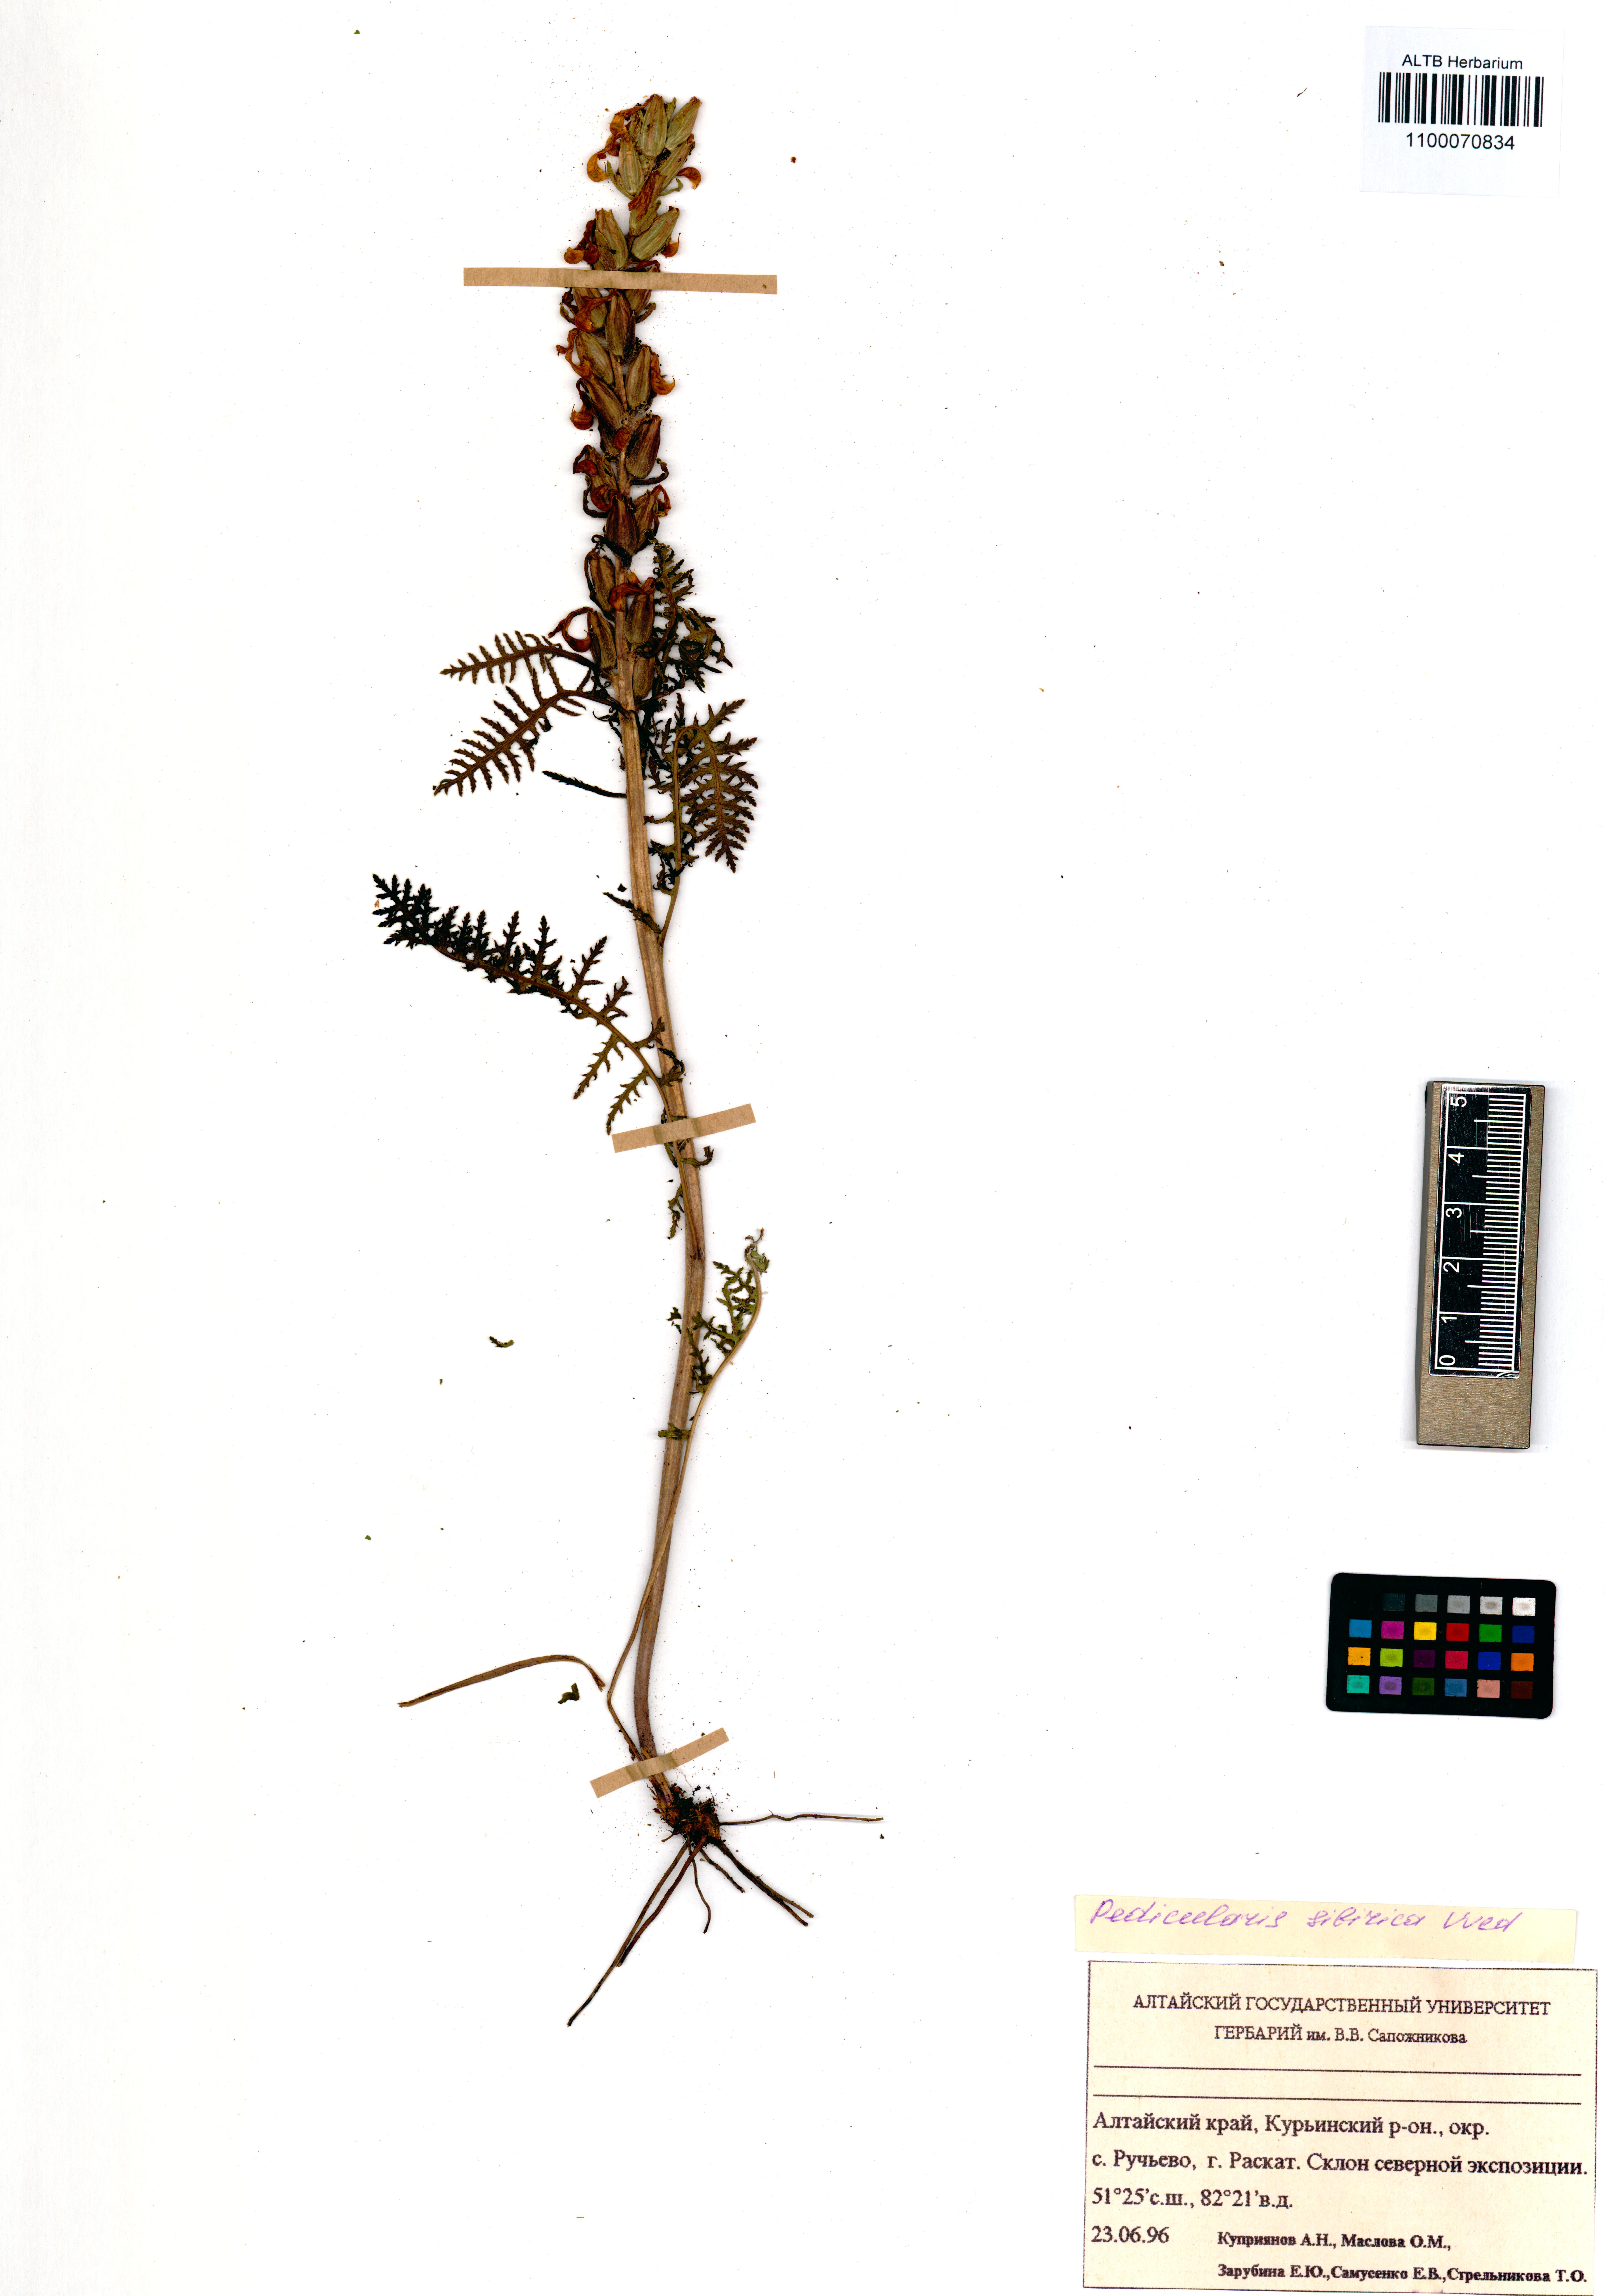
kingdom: Plantae
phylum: Tracheophyta
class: Magnoliopsida
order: Lamiales
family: Orobanchaceae
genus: Pedicularis
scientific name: Pedicularis sibirica
